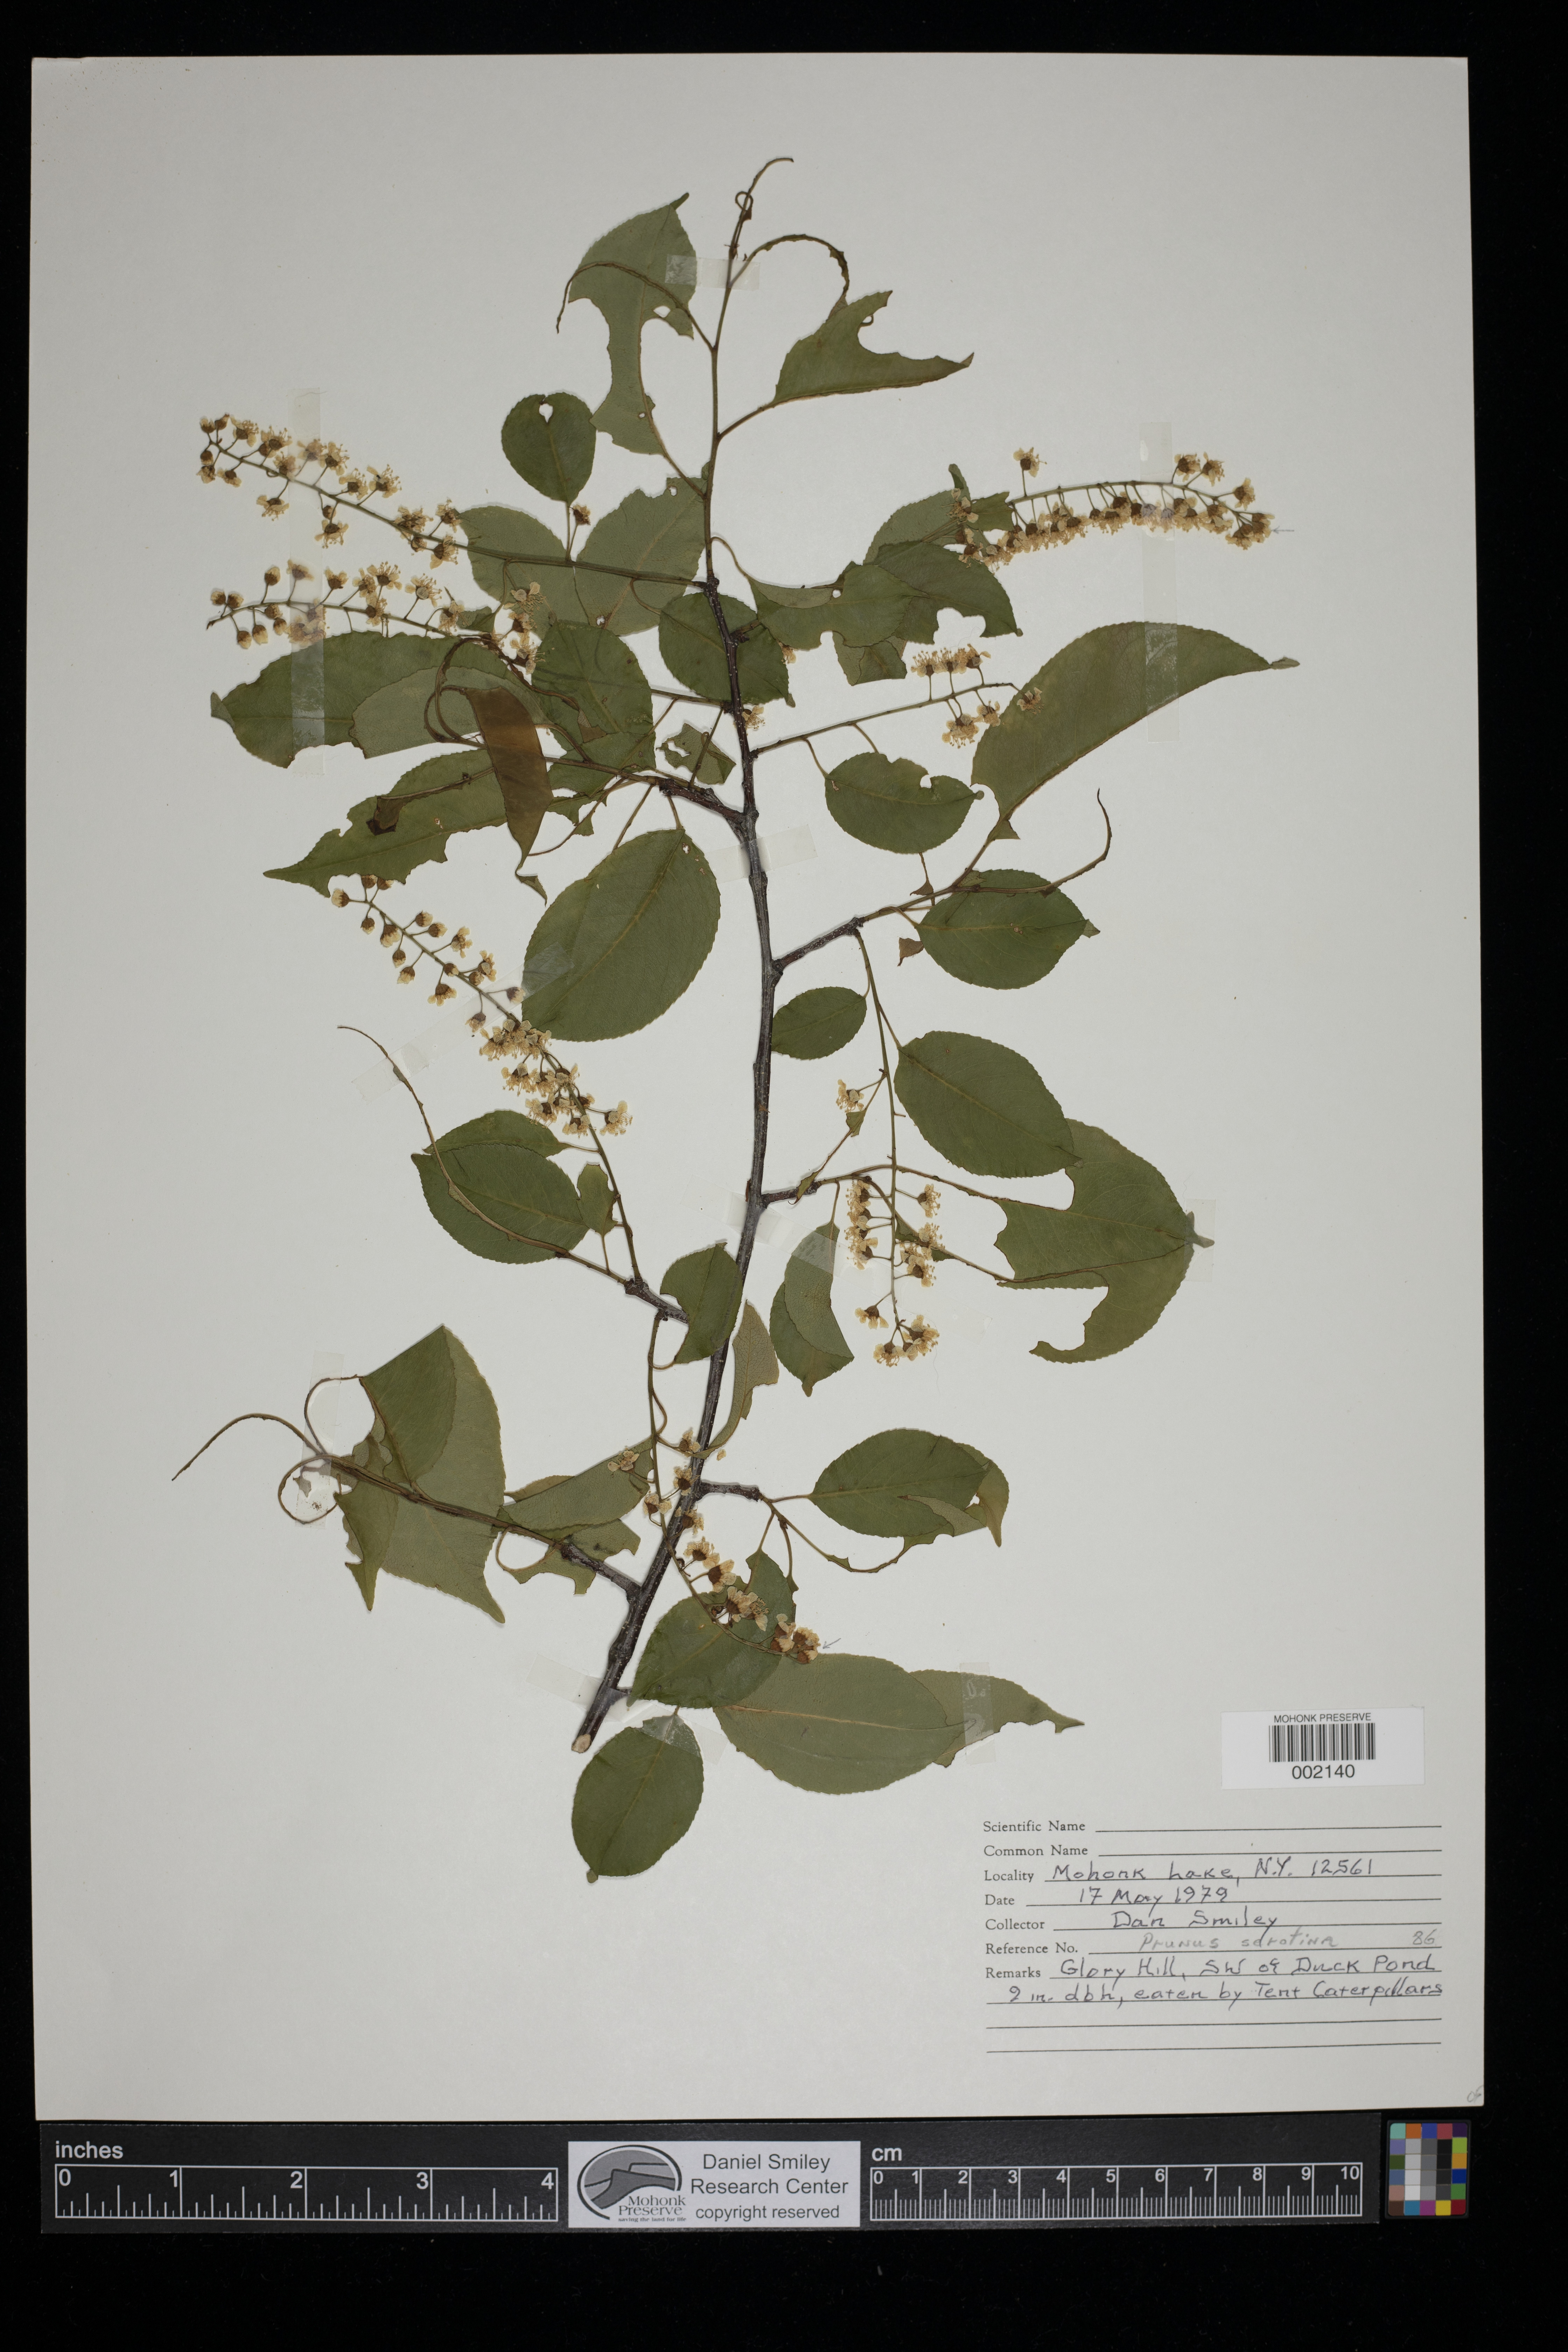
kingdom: Plantae
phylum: Tracheophyta
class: Magnoliopsida
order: Rosales
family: Rosaceae
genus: Prunus
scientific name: Prunus serotina
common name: Black cherry
